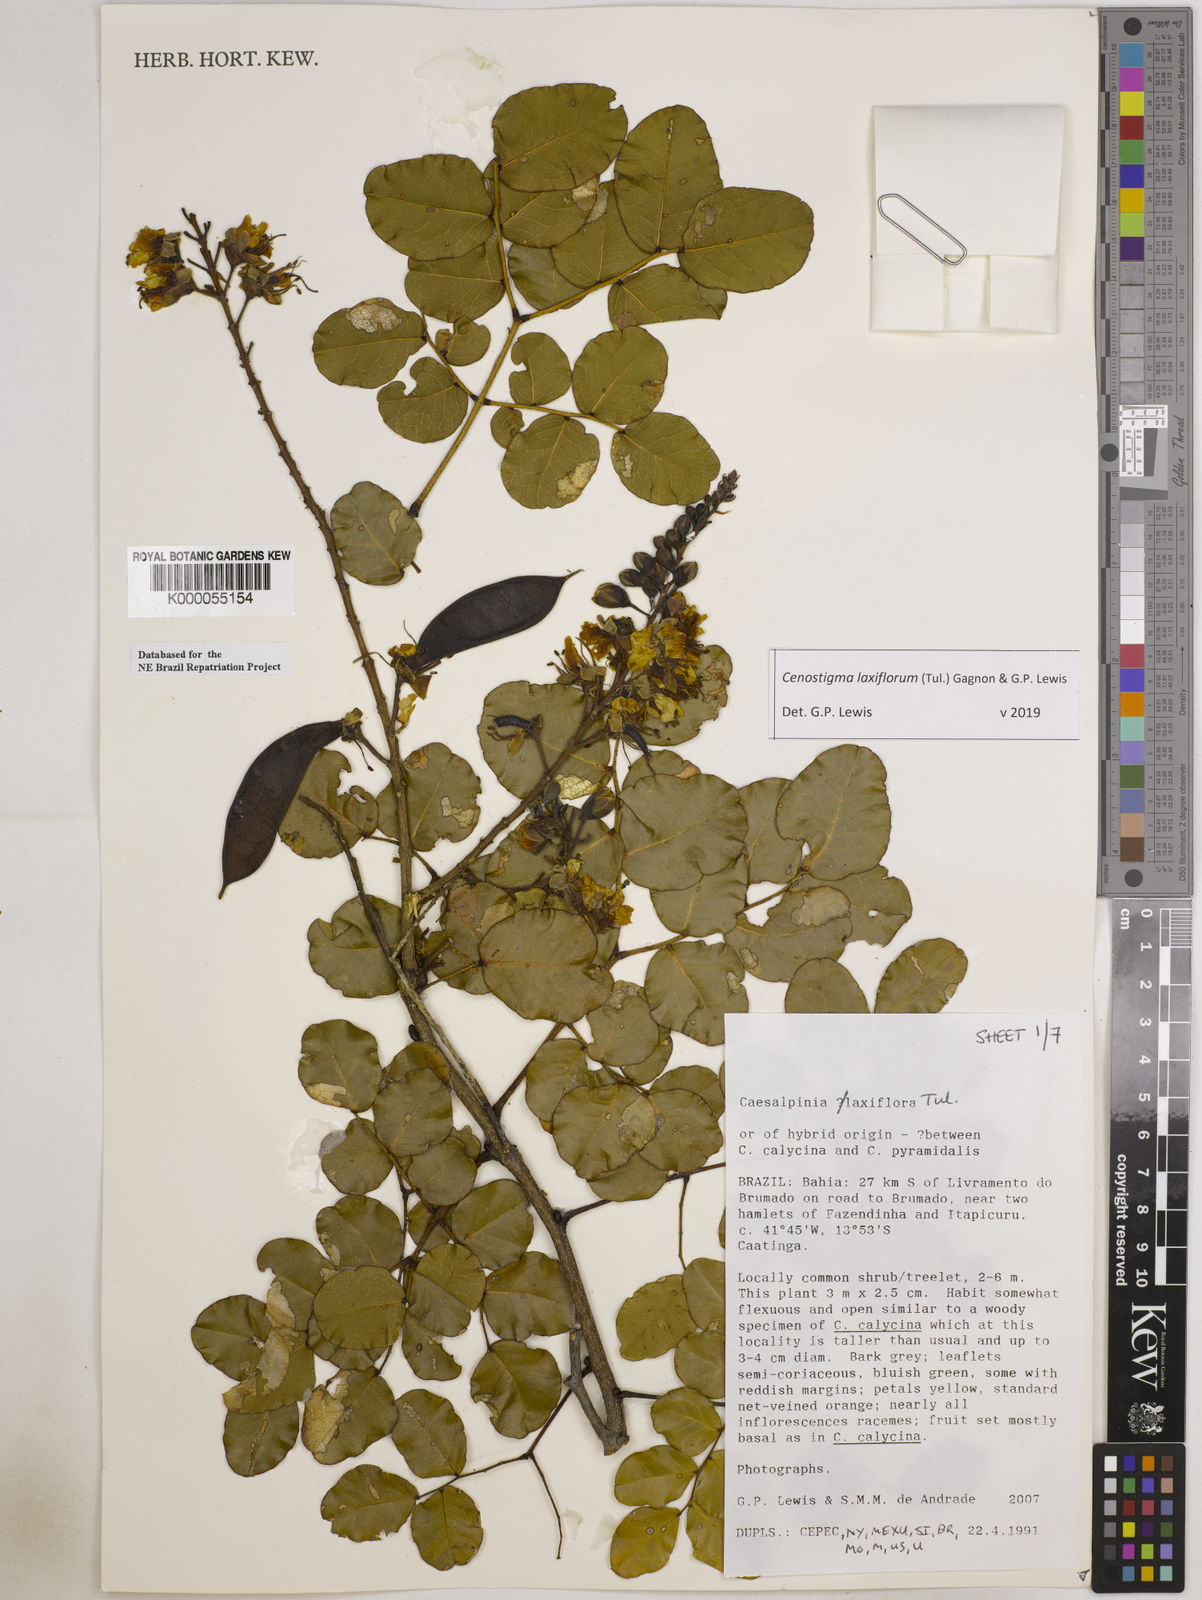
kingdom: Plantae
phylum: Tracheophyta
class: Magnoliopsida
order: Fabales
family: Fabaceae
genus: Cenostigma
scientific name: Cenostigma laxiflorum
